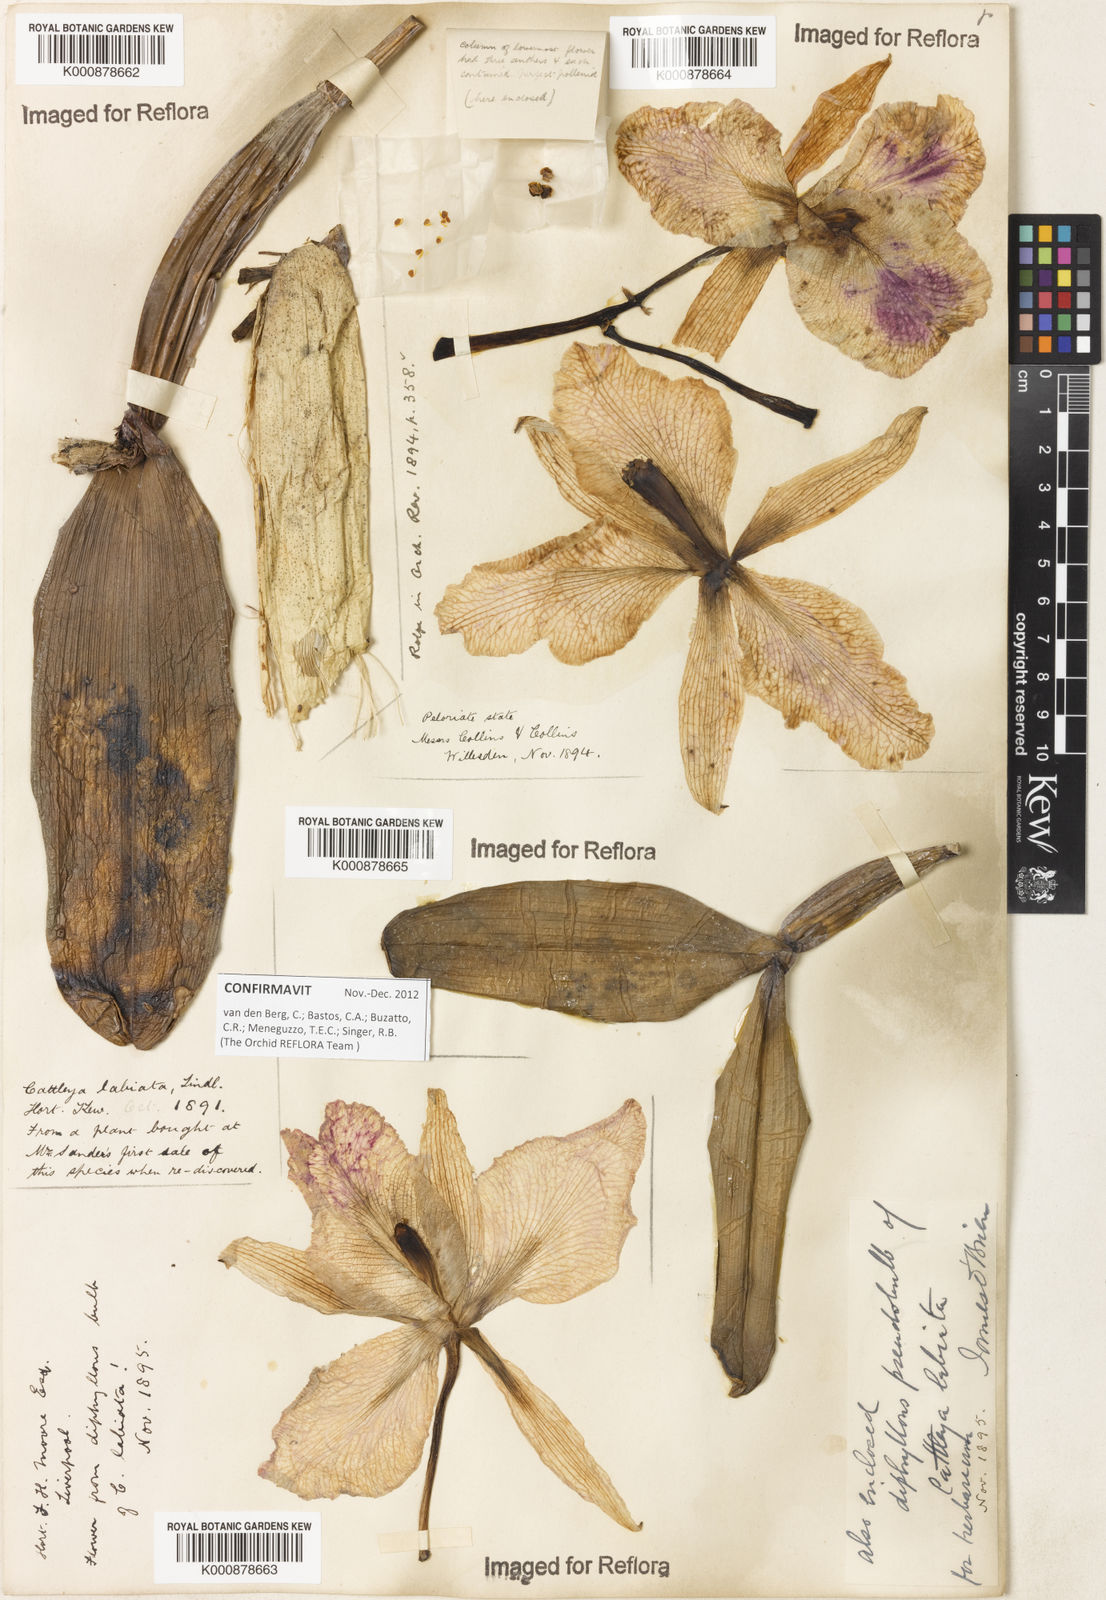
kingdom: Plantae
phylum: Tracheophyta
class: Liliopsida
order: Asparagales
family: Orchidaceae
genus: Cattleya
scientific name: Cattleya labiata
